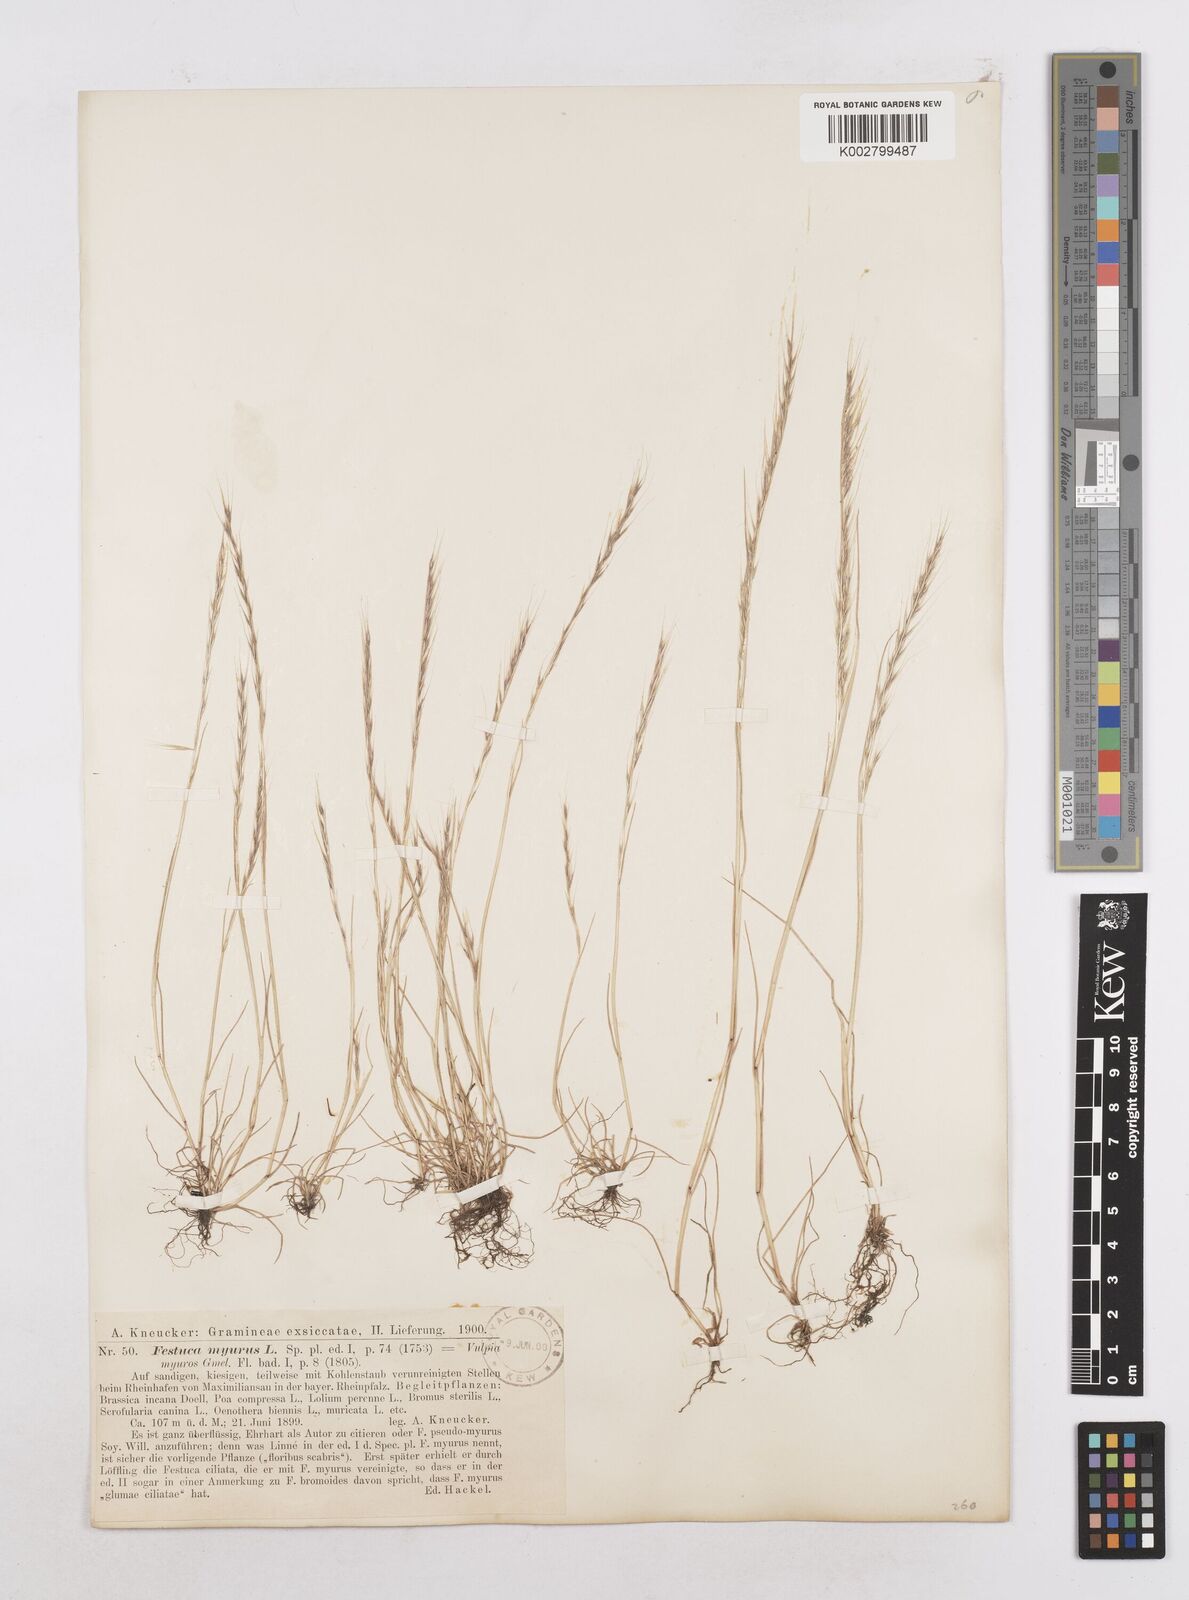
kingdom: Plantae
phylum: Tracheophyta
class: Liliopsida
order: Poales
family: Poaceae
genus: Festuca
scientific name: Festuca myuros
